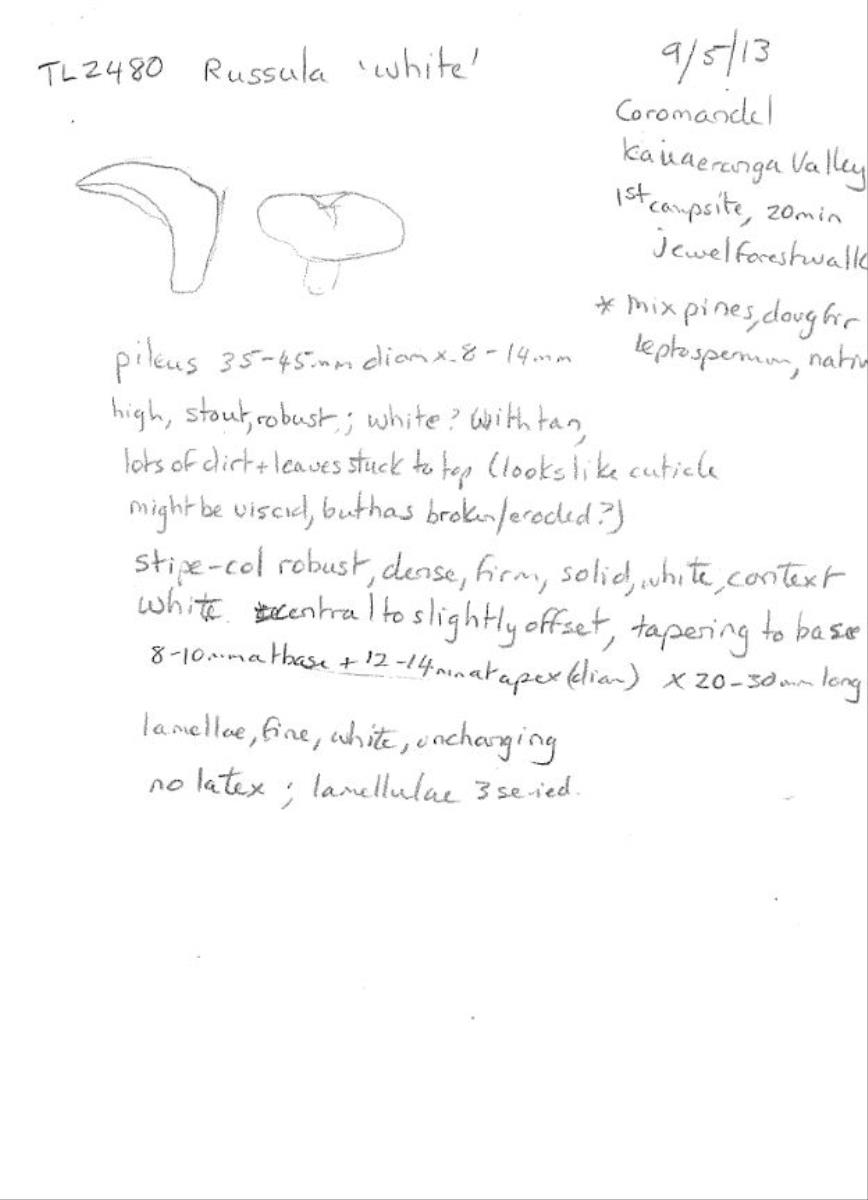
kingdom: Fungi
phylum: Basidiomycota
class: Agaricomycetes
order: Russulales
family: Russulaceae
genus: Russula
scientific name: Russula
